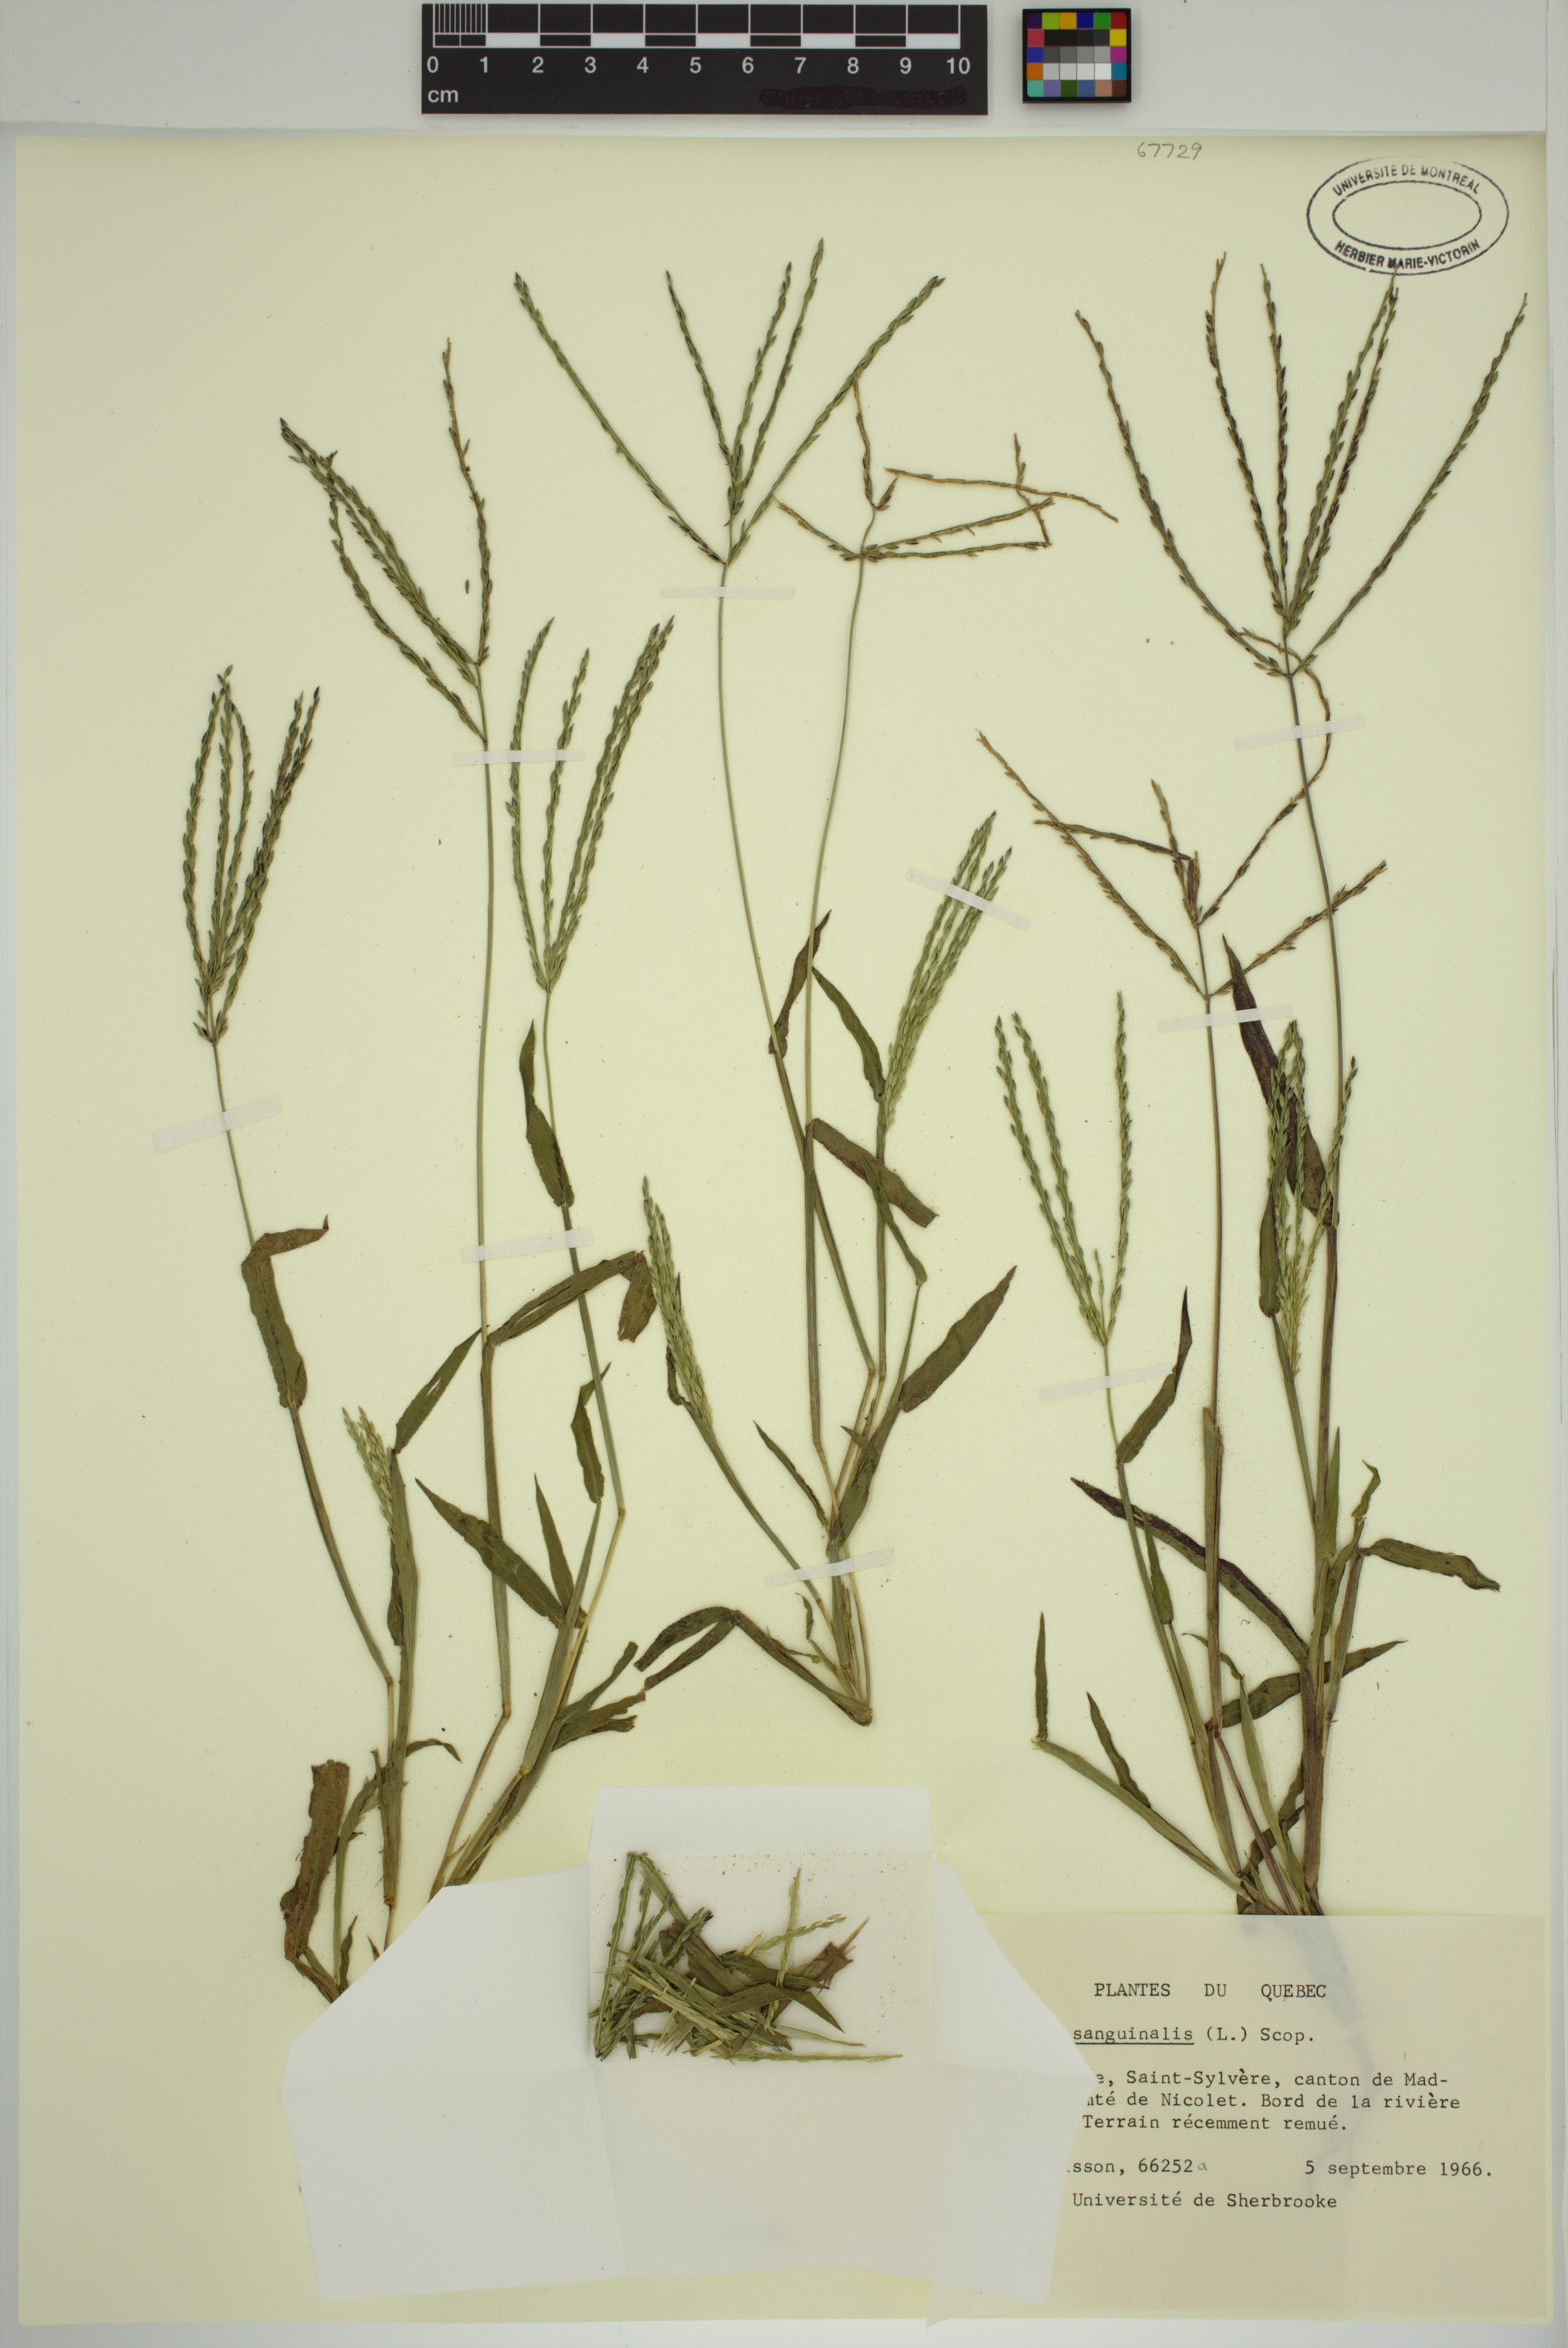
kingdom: Plantae
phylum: Tracheophyta
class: Liliopsida
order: Poales
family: Poaceae
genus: Digitaria
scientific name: Digitaria sanguinalis
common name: Hairy crabgrass
